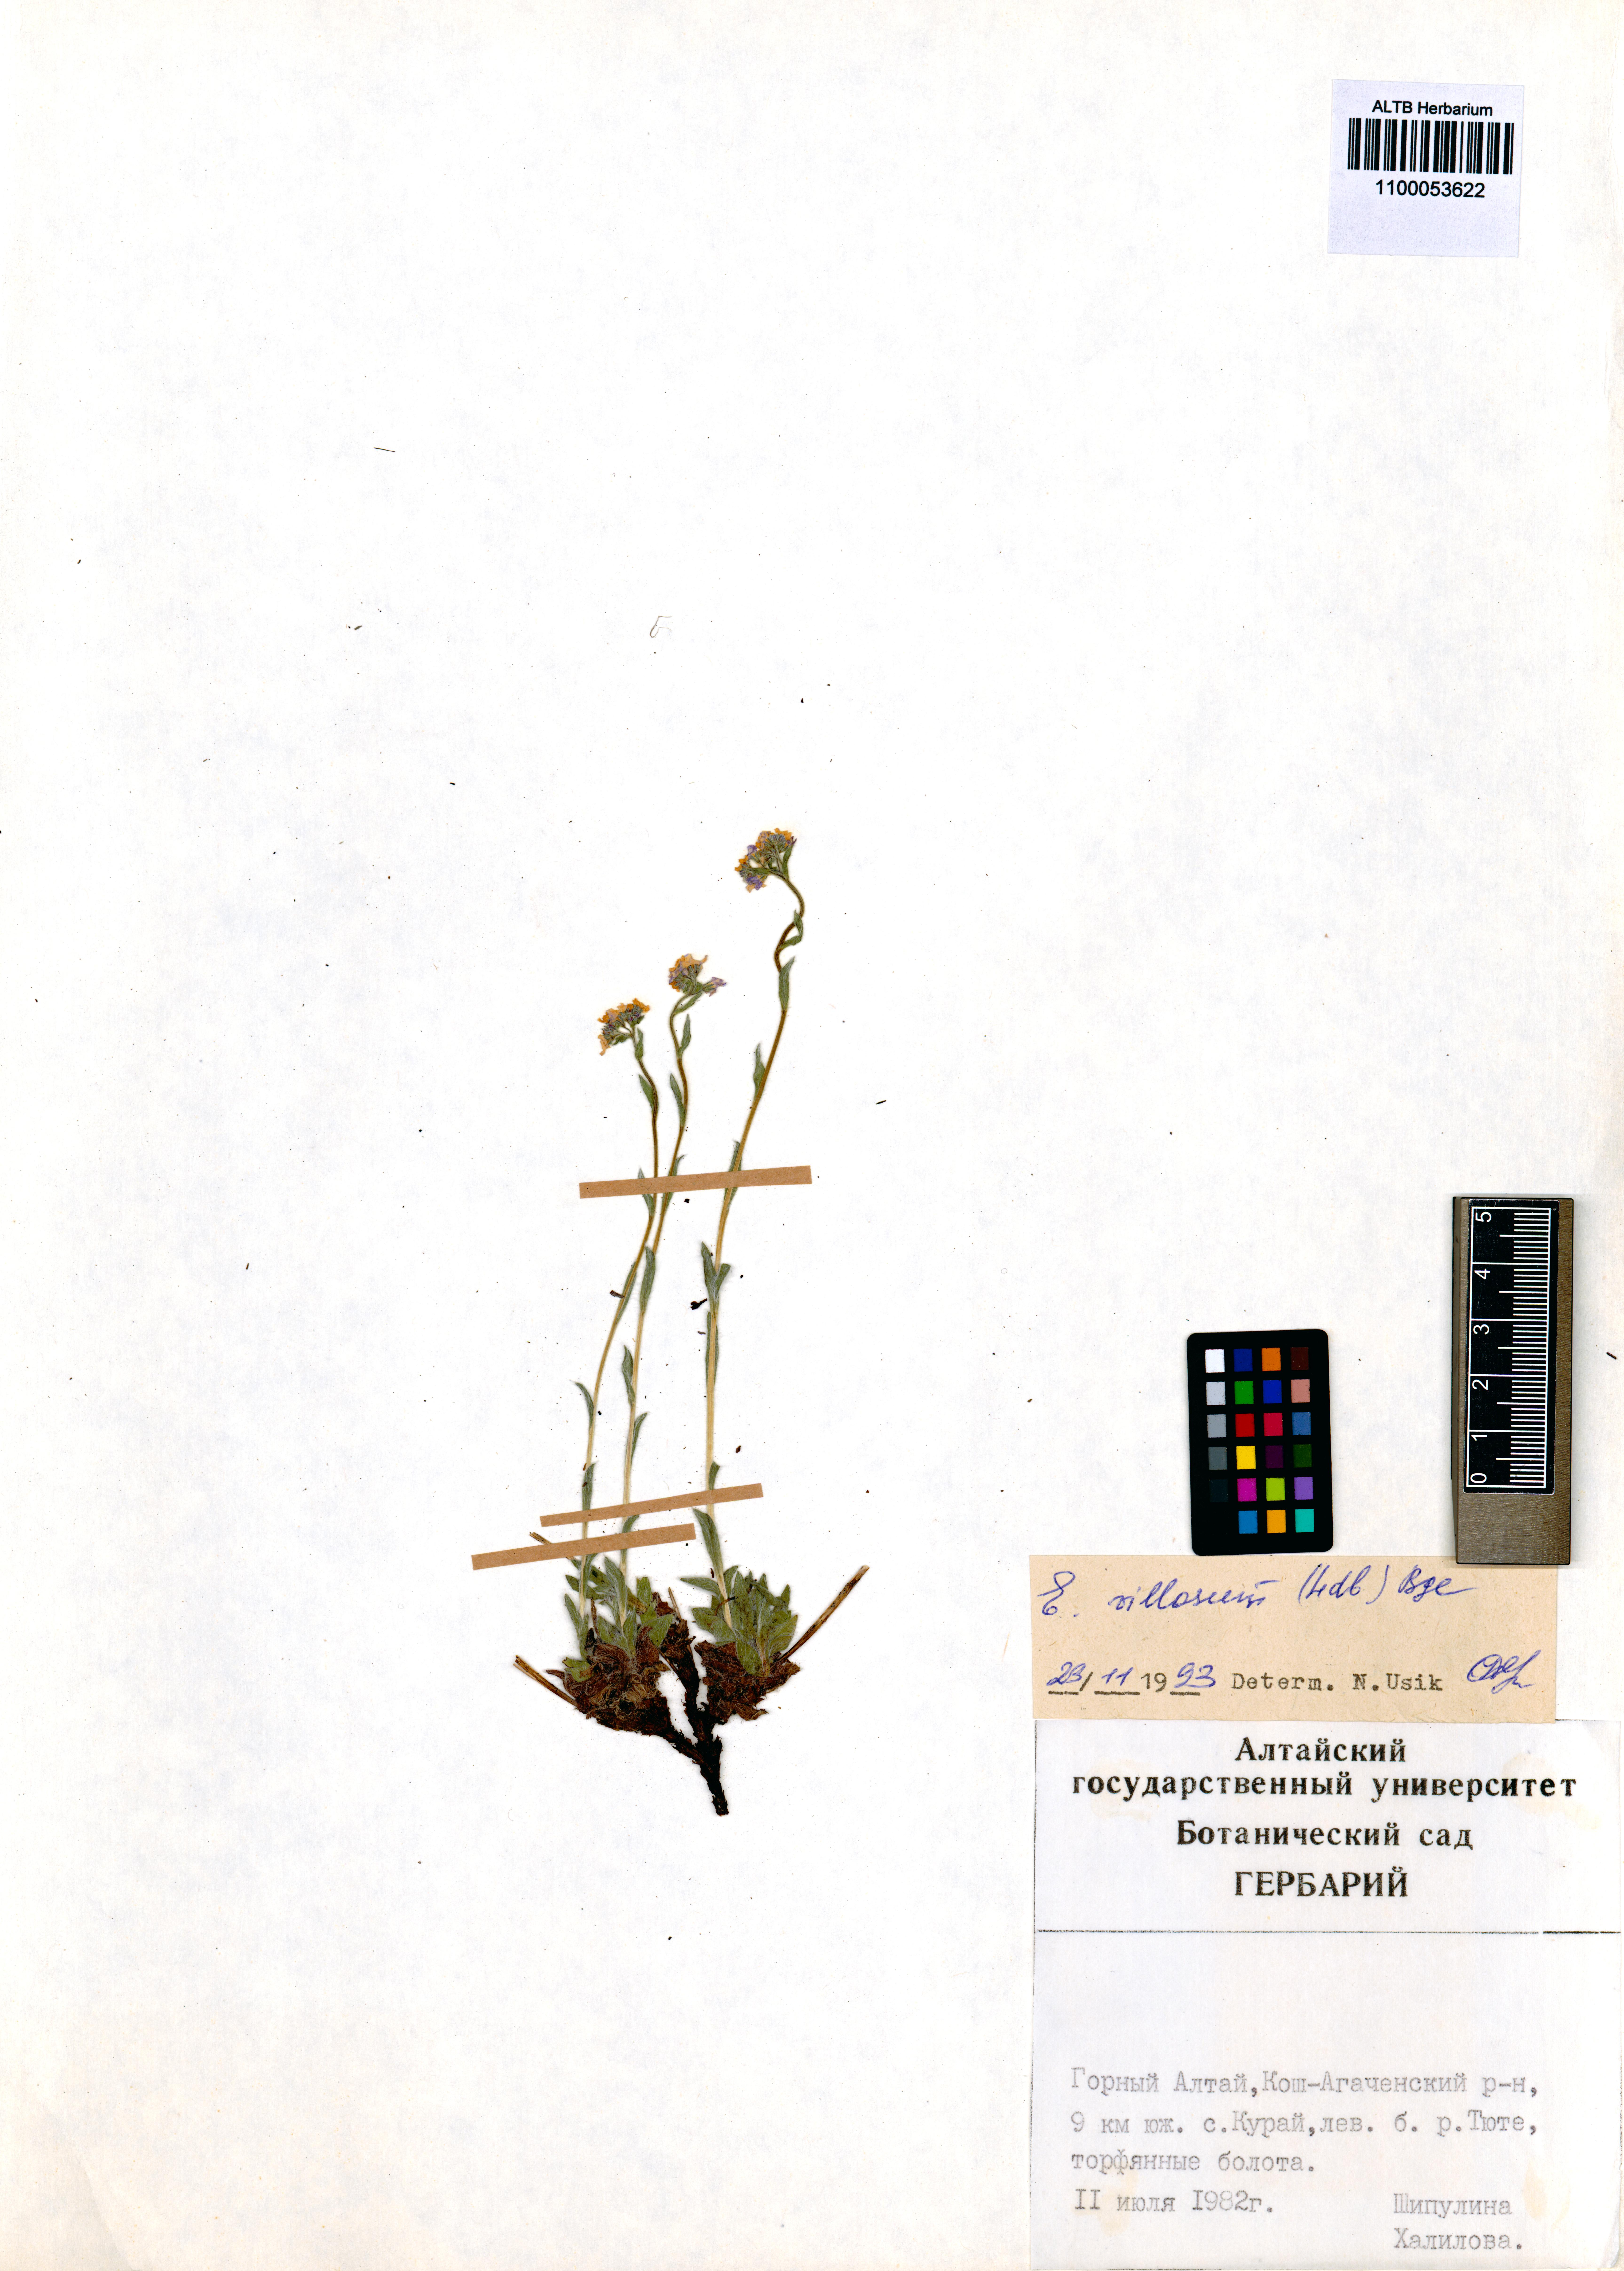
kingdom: Plantae
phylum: Tracheophyta
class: Magnoliopsida
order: Boraginales
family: Boraginaceae
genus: Eritrichium
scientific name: Eritrichium villosum
